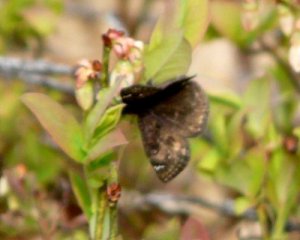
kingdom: Animalia
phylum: Arthropoda
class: Insecta
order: Lepidoptera
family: Hesperiidae
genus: Gesta
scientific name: Gesta
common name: Juvenal's Duskywing
